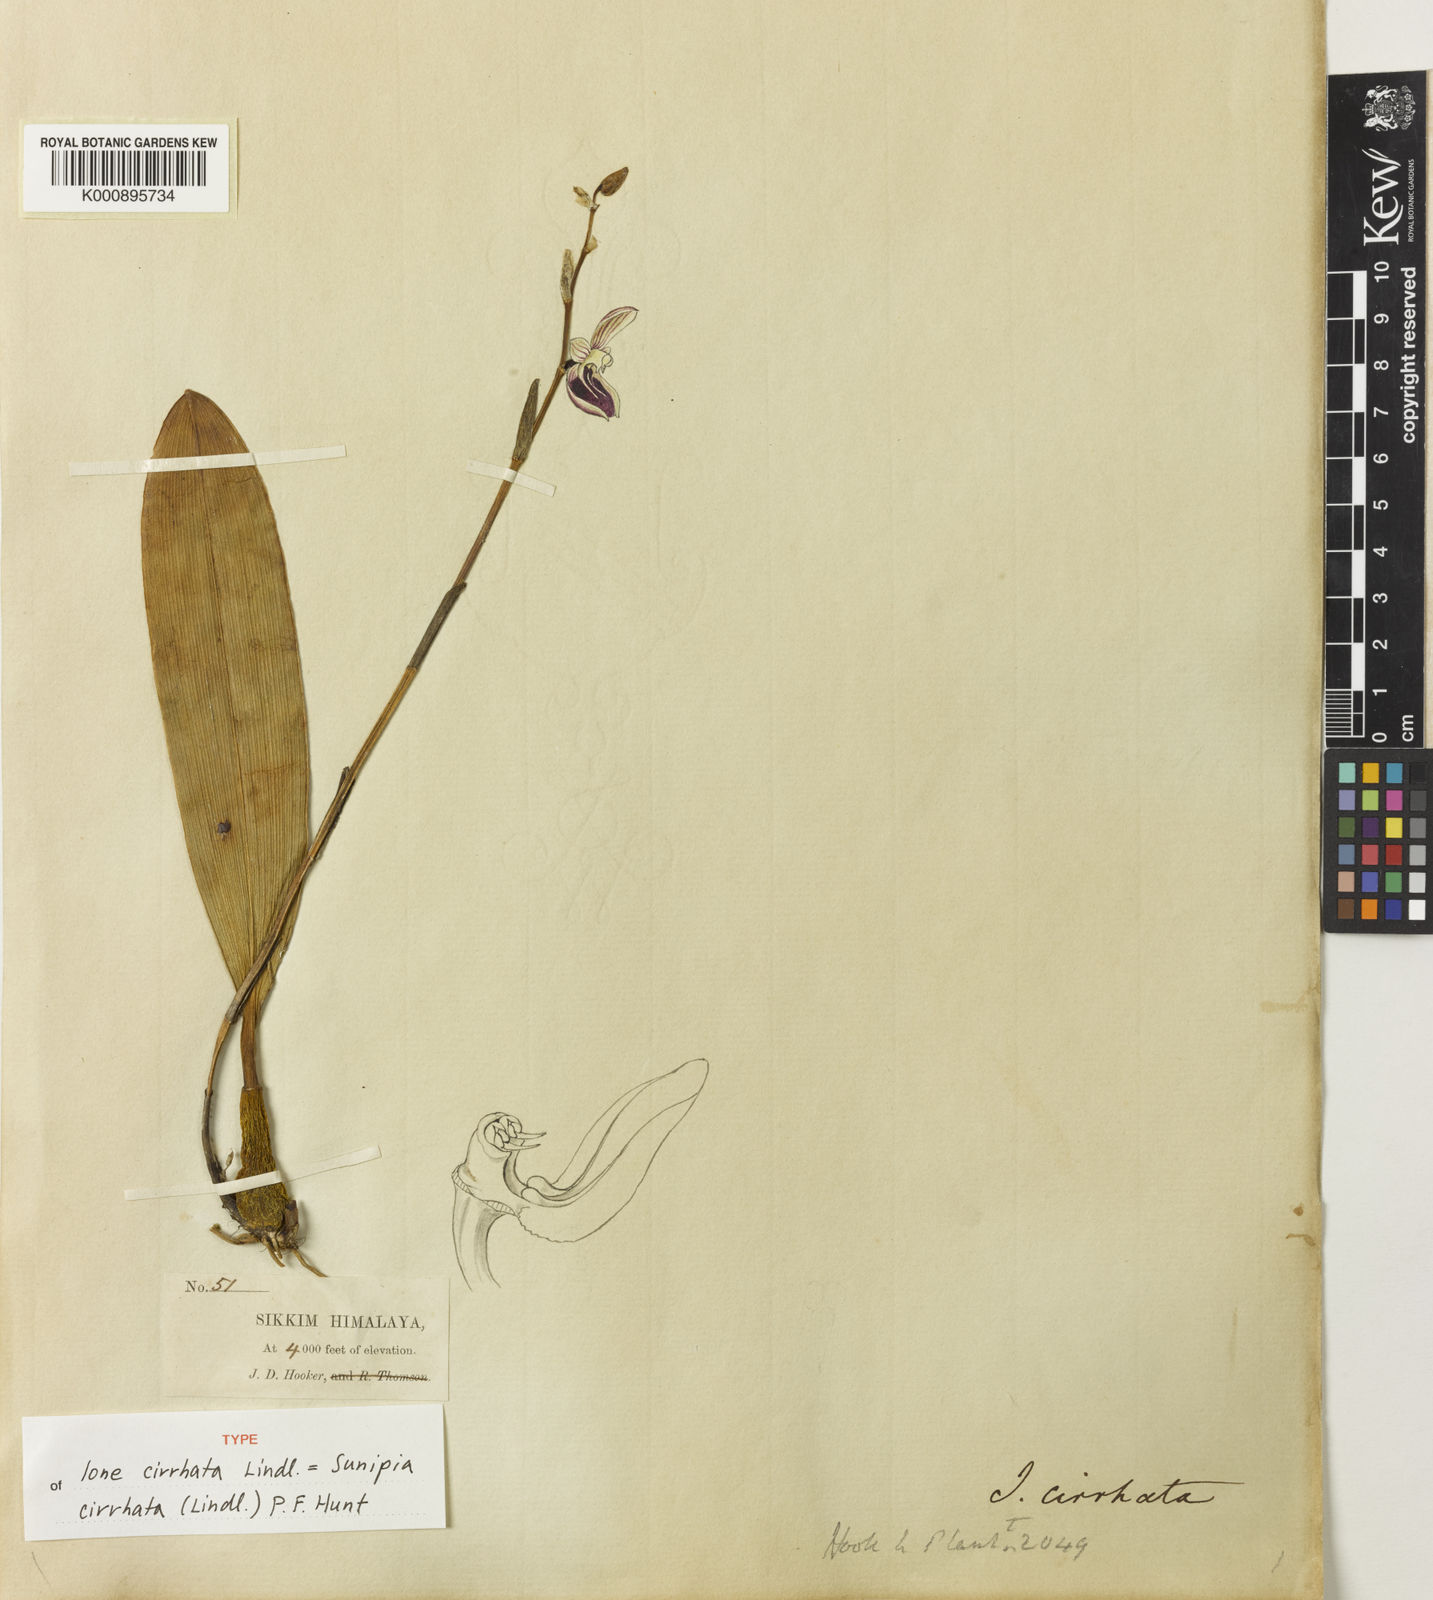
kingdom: Plantae
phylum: Tracheophyta
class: Liliopsida
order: Asparagales
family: Orchidaceae
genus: Bulbophyllum
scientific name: Bulbophyllum purpureofuscum
